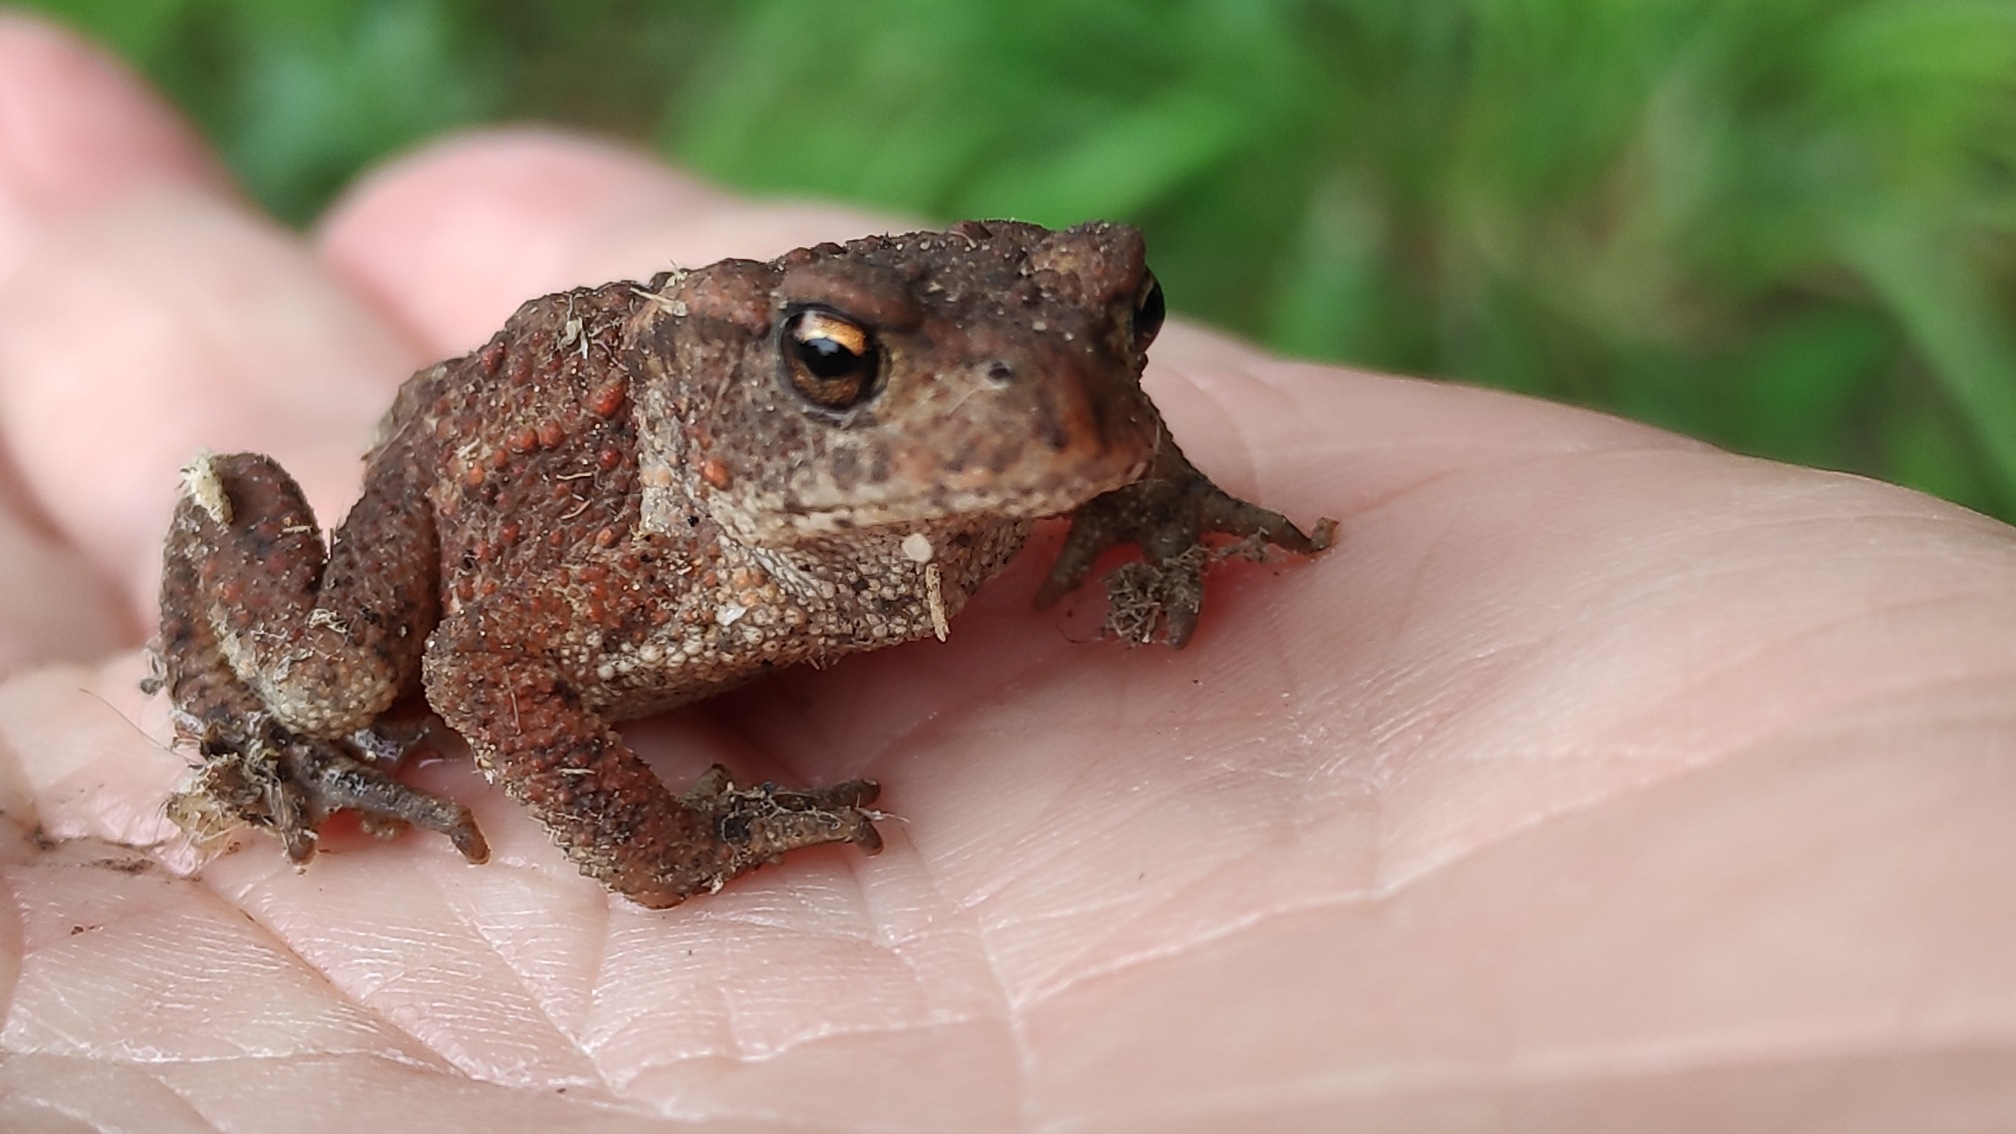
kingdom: Animalia
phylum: Chordata
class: Amphibia
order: Anura
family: Bufonidae
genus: Bufo
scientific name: Bufo bufo
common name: Skrubtudse
